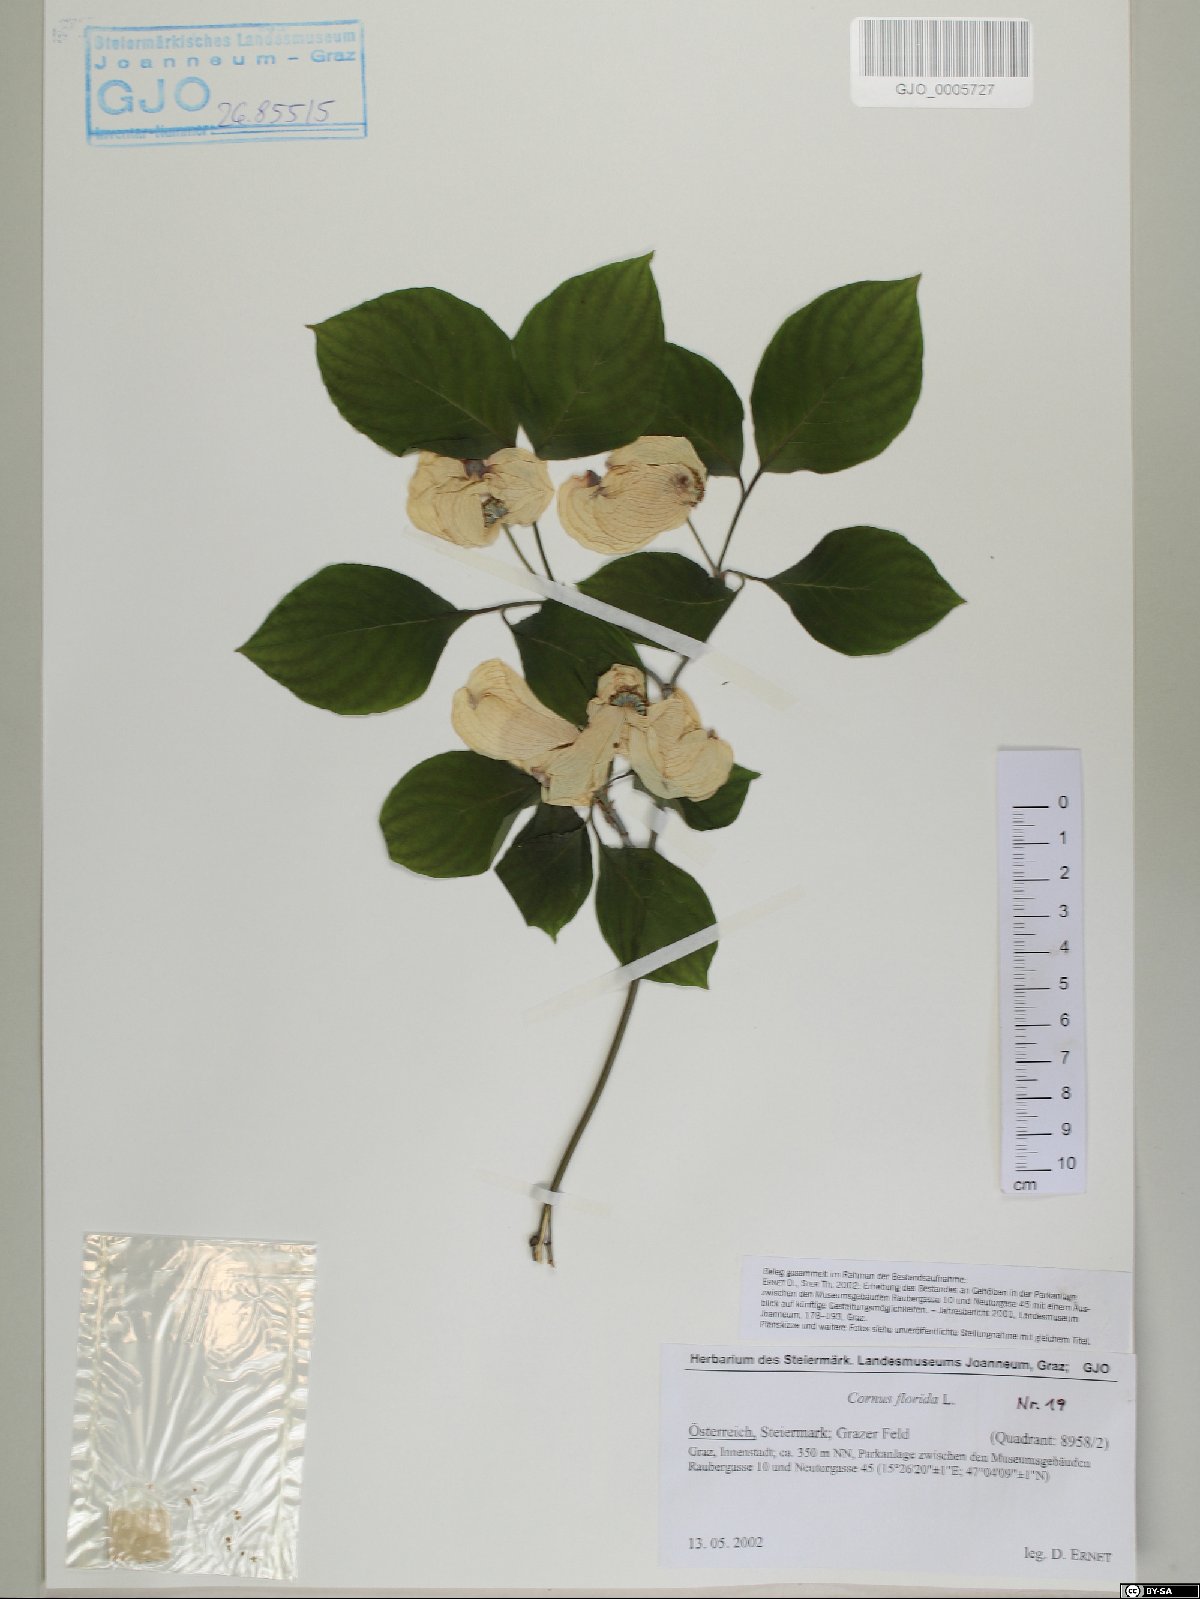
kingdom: Plantae
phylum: Tracheophyta
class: Magnoliopsida
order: Cornales
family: Cornaceae
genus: Cornus
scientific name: Cornus florida
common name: Flowering dogwood
